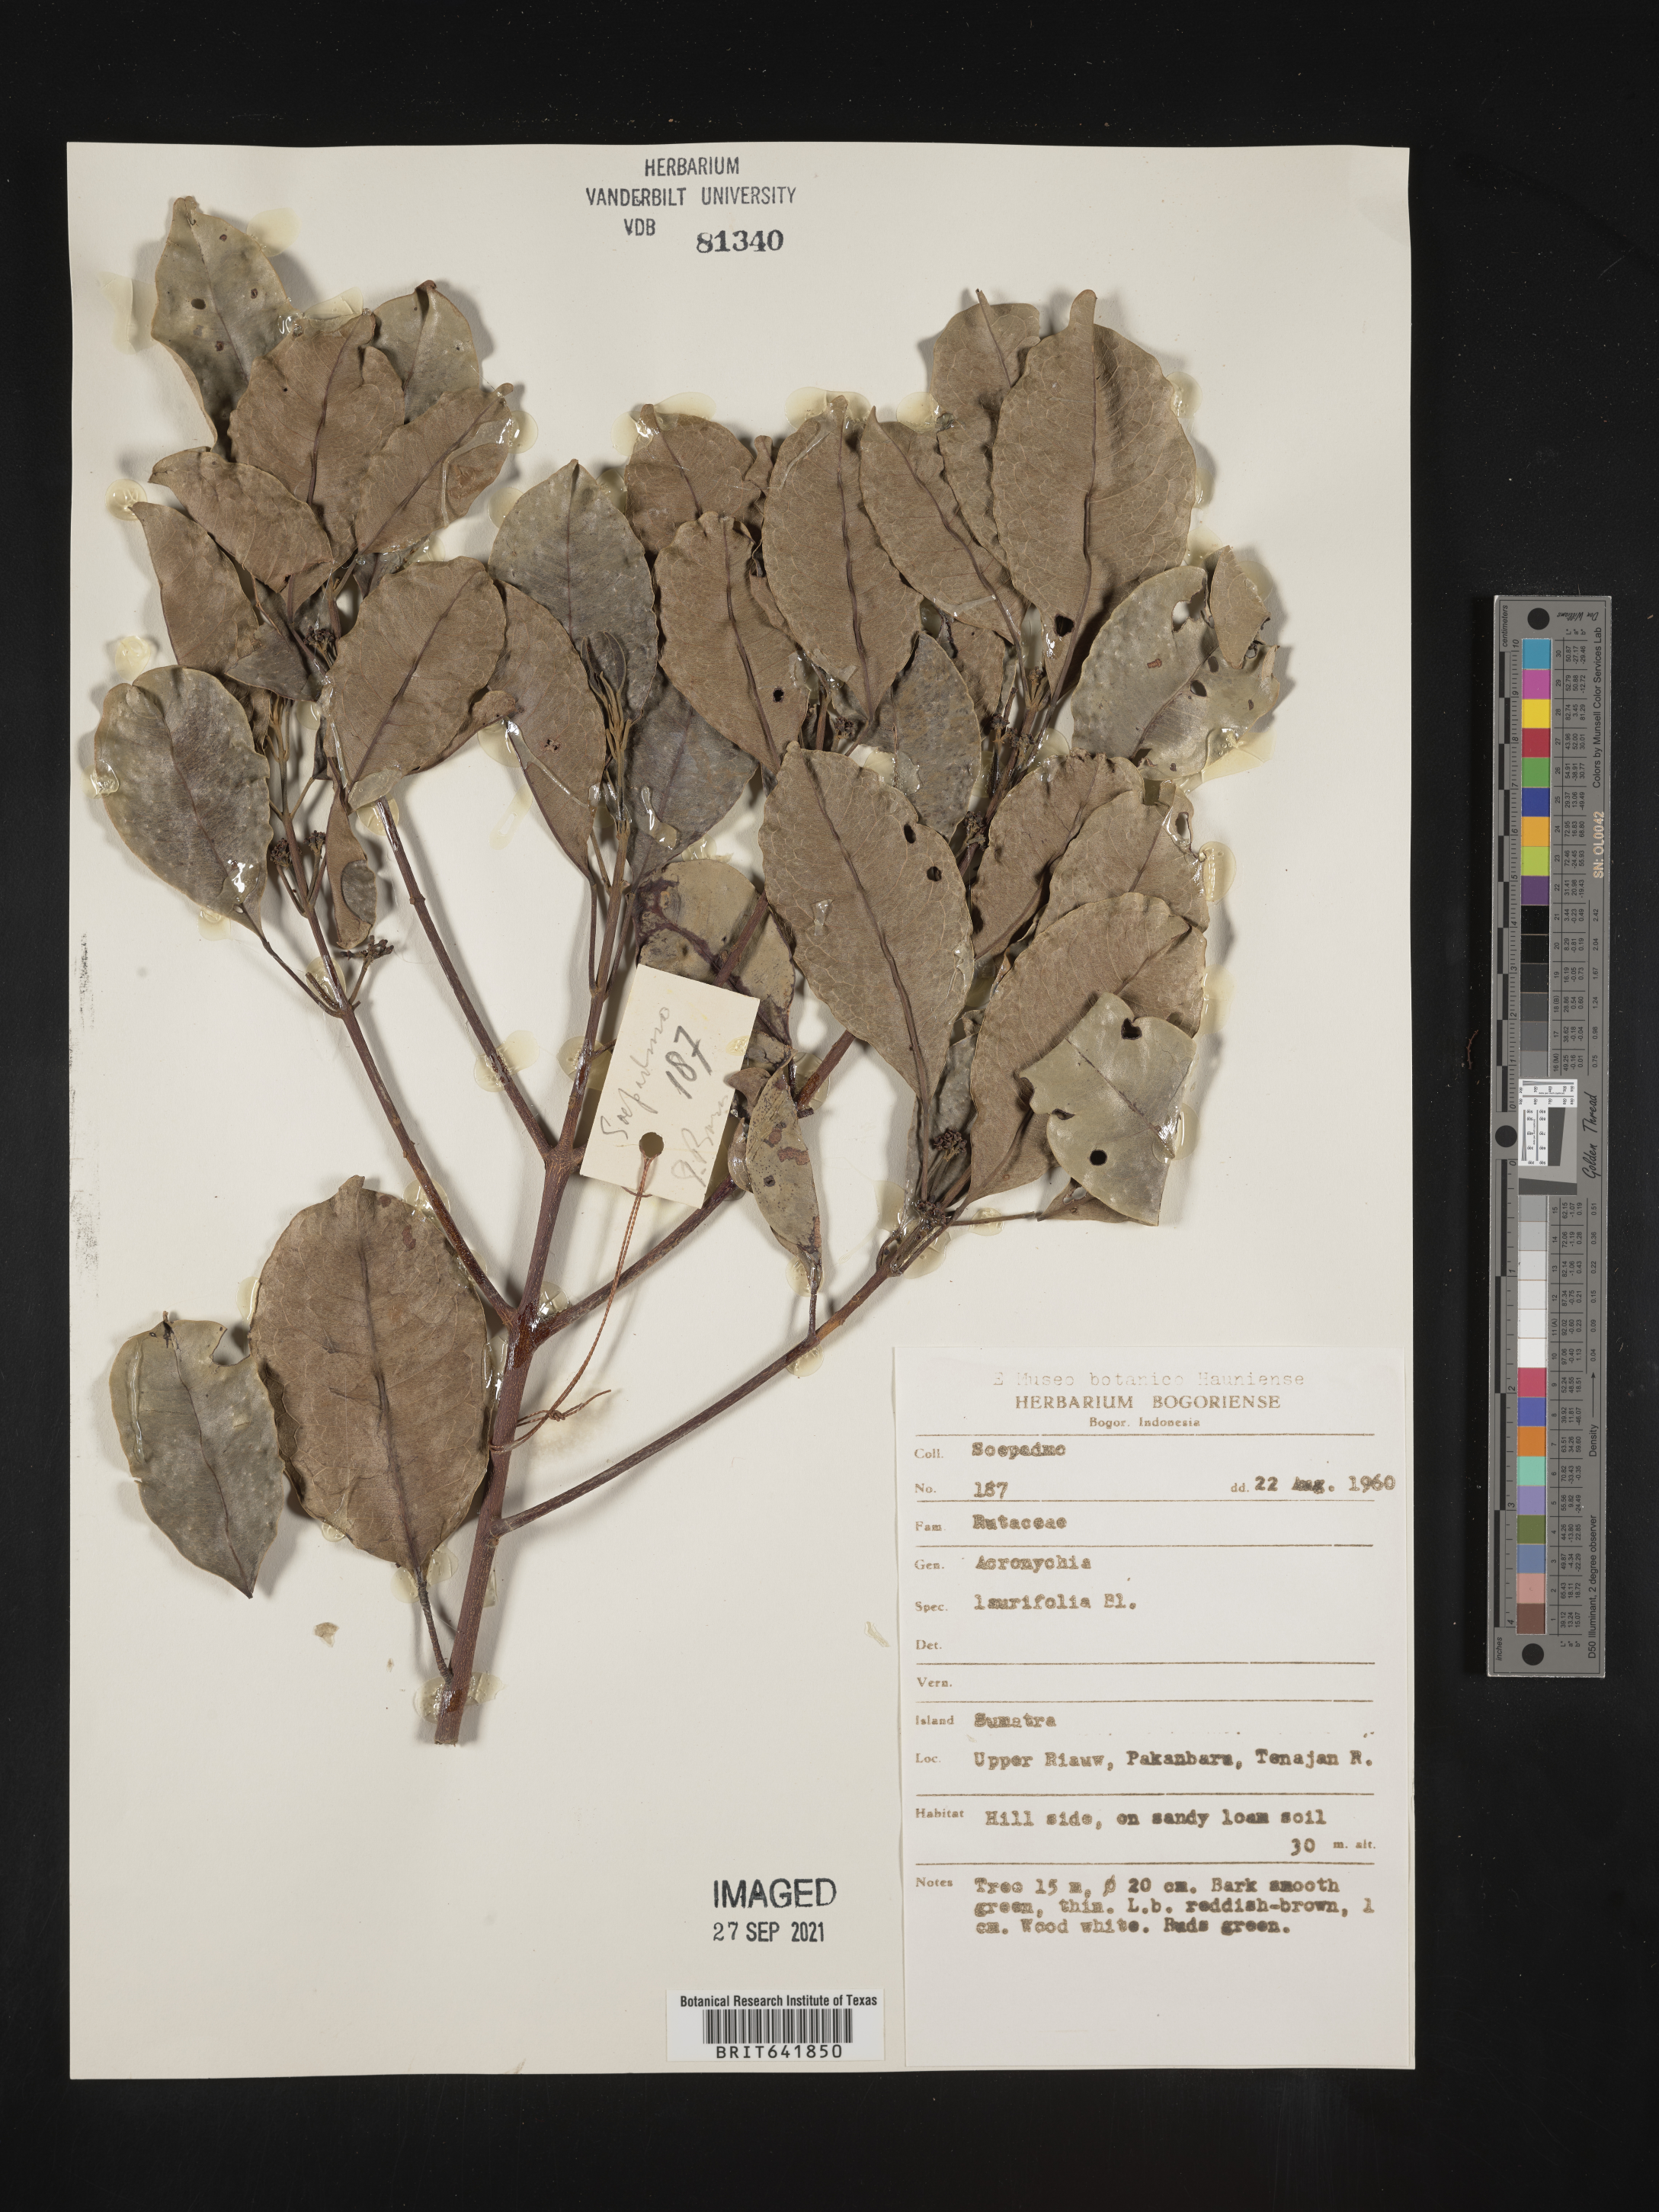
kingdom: Plantae
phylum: Tracheophyta
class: Magnoliopsida
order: Sapindales
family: Rutaceae
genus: Acronychia
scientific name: Acronychia
